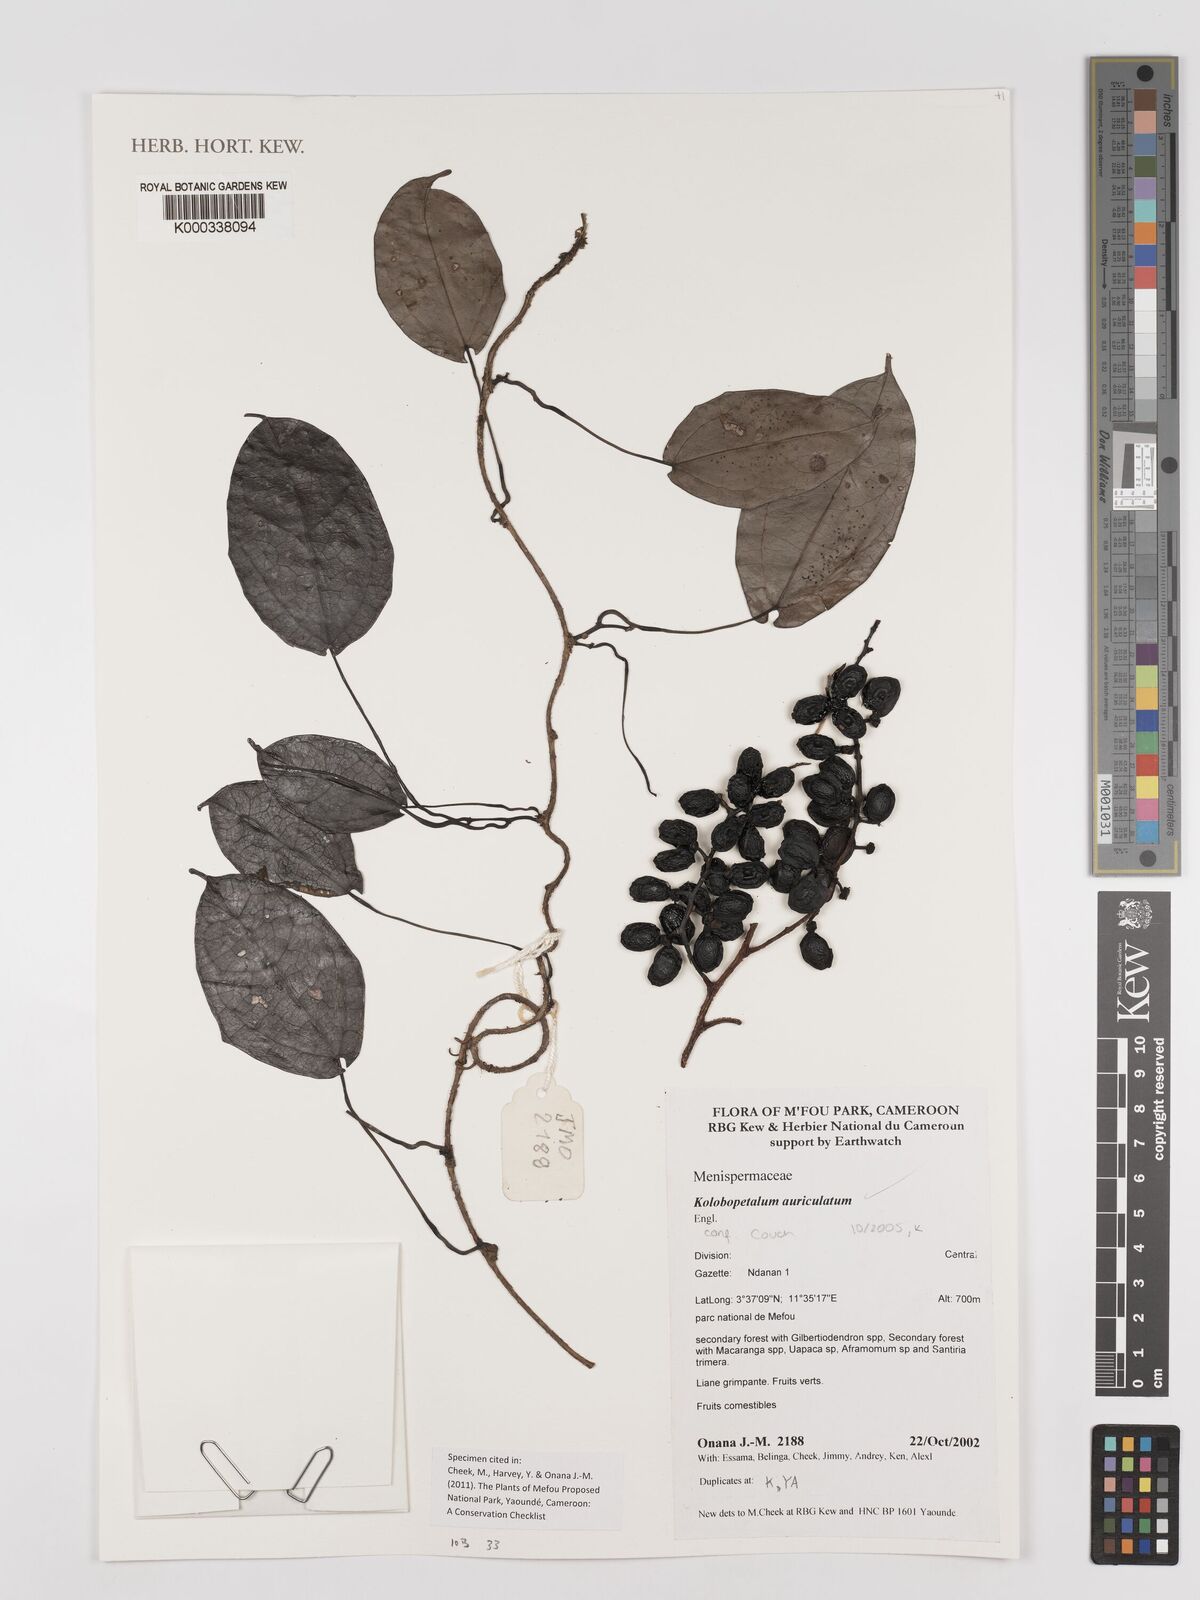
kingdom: Plantae
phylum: Tracheophyta
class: Magnoliopsida
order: Ranunculales
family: Menispermaceae
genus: Kolobopetalum
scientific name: Kolobopetalum auriculatum
